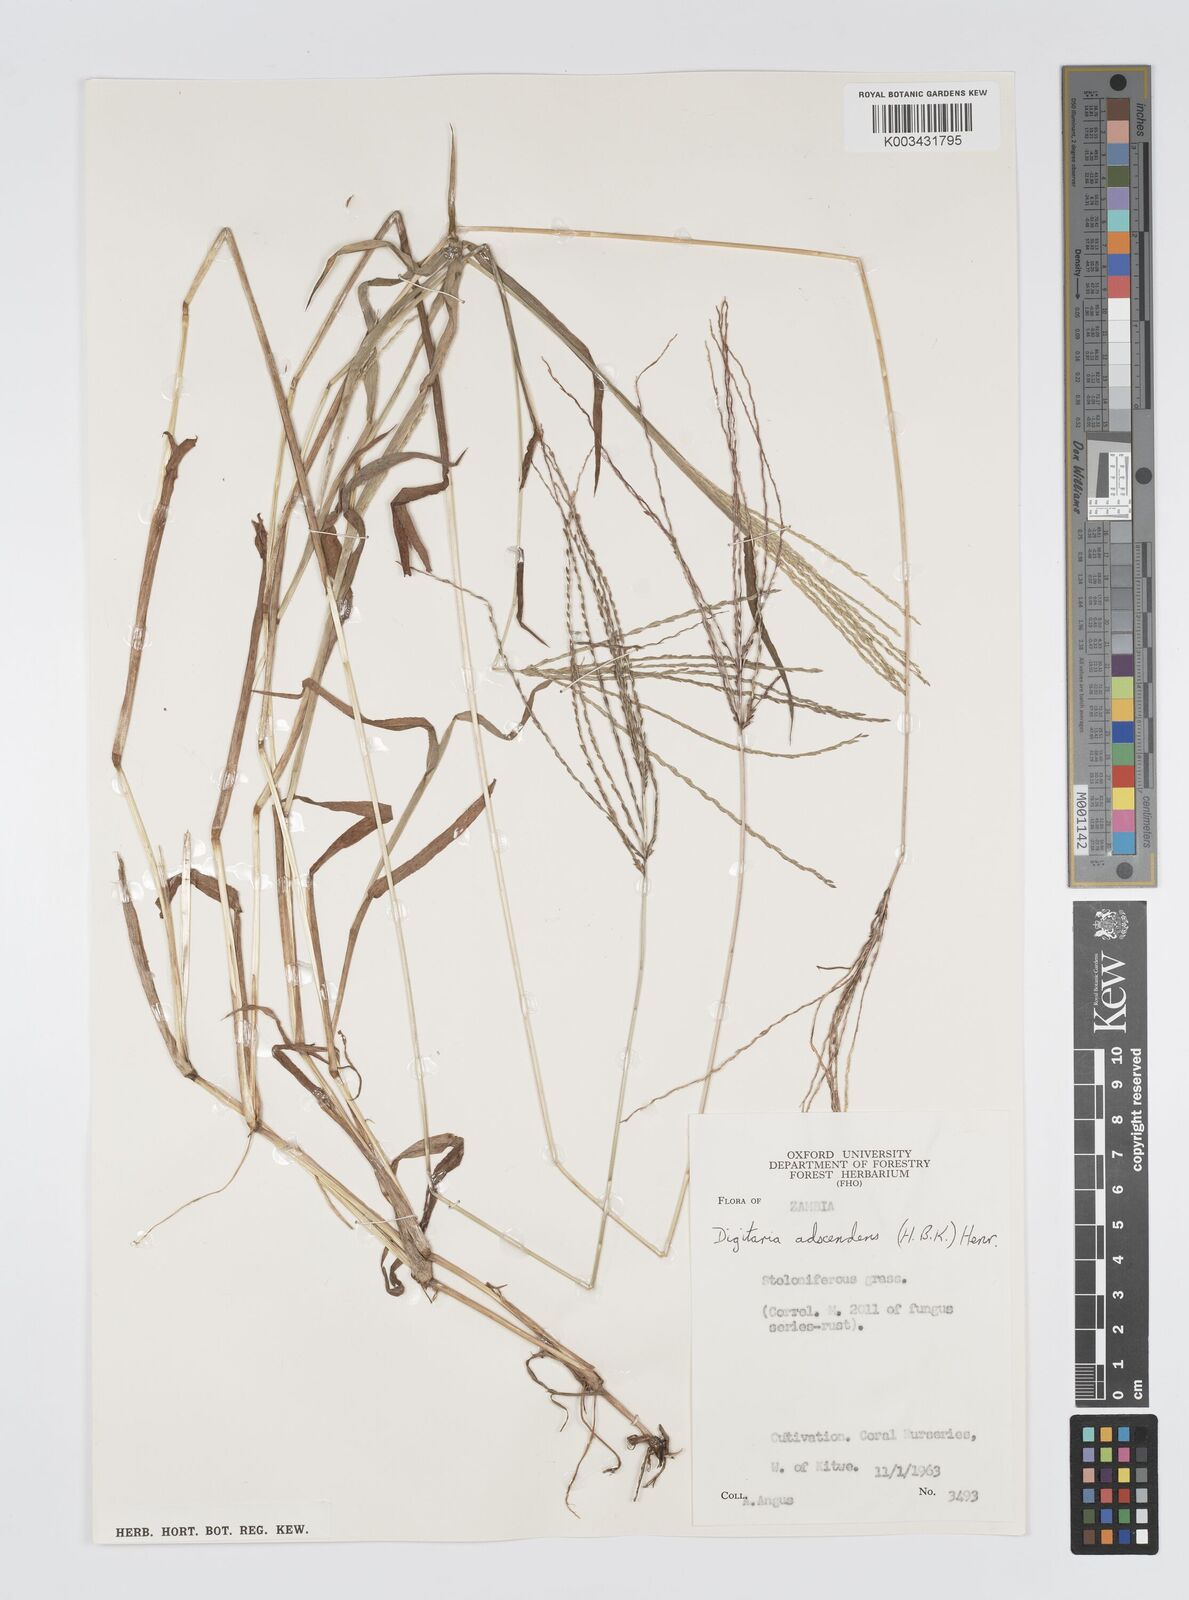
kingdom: Plantae
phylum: Tracheophyta
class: Liliopsida
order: Poales
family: Poaceae
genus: Digitaria
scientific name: Digitaria nuda
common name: Naked crabgrass
